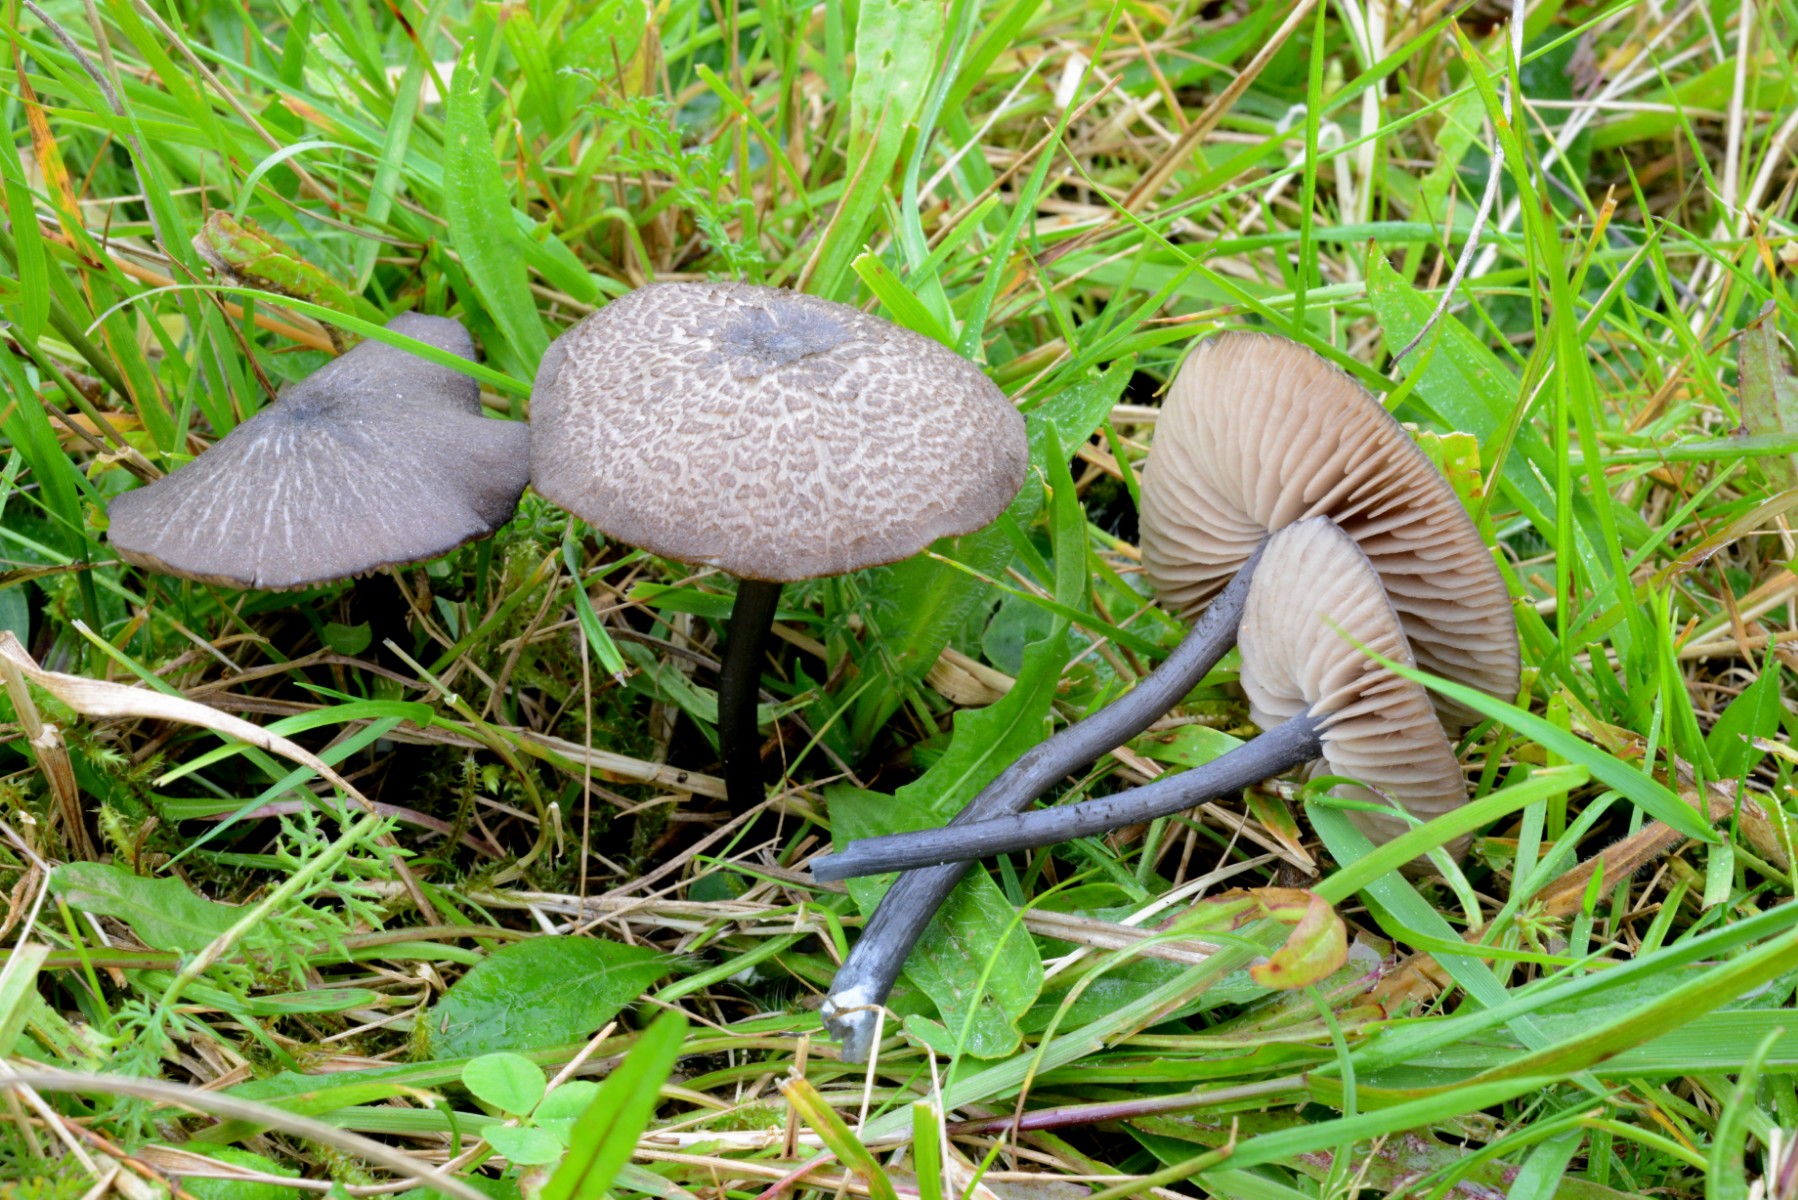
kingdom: Fungi
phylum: Basidiomycota
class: Agaricomycetes
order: Agaricales
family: Entolomataceae
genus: Entoloma
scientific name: Entoloma atrocoeruleum
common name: sortblå rødblad
